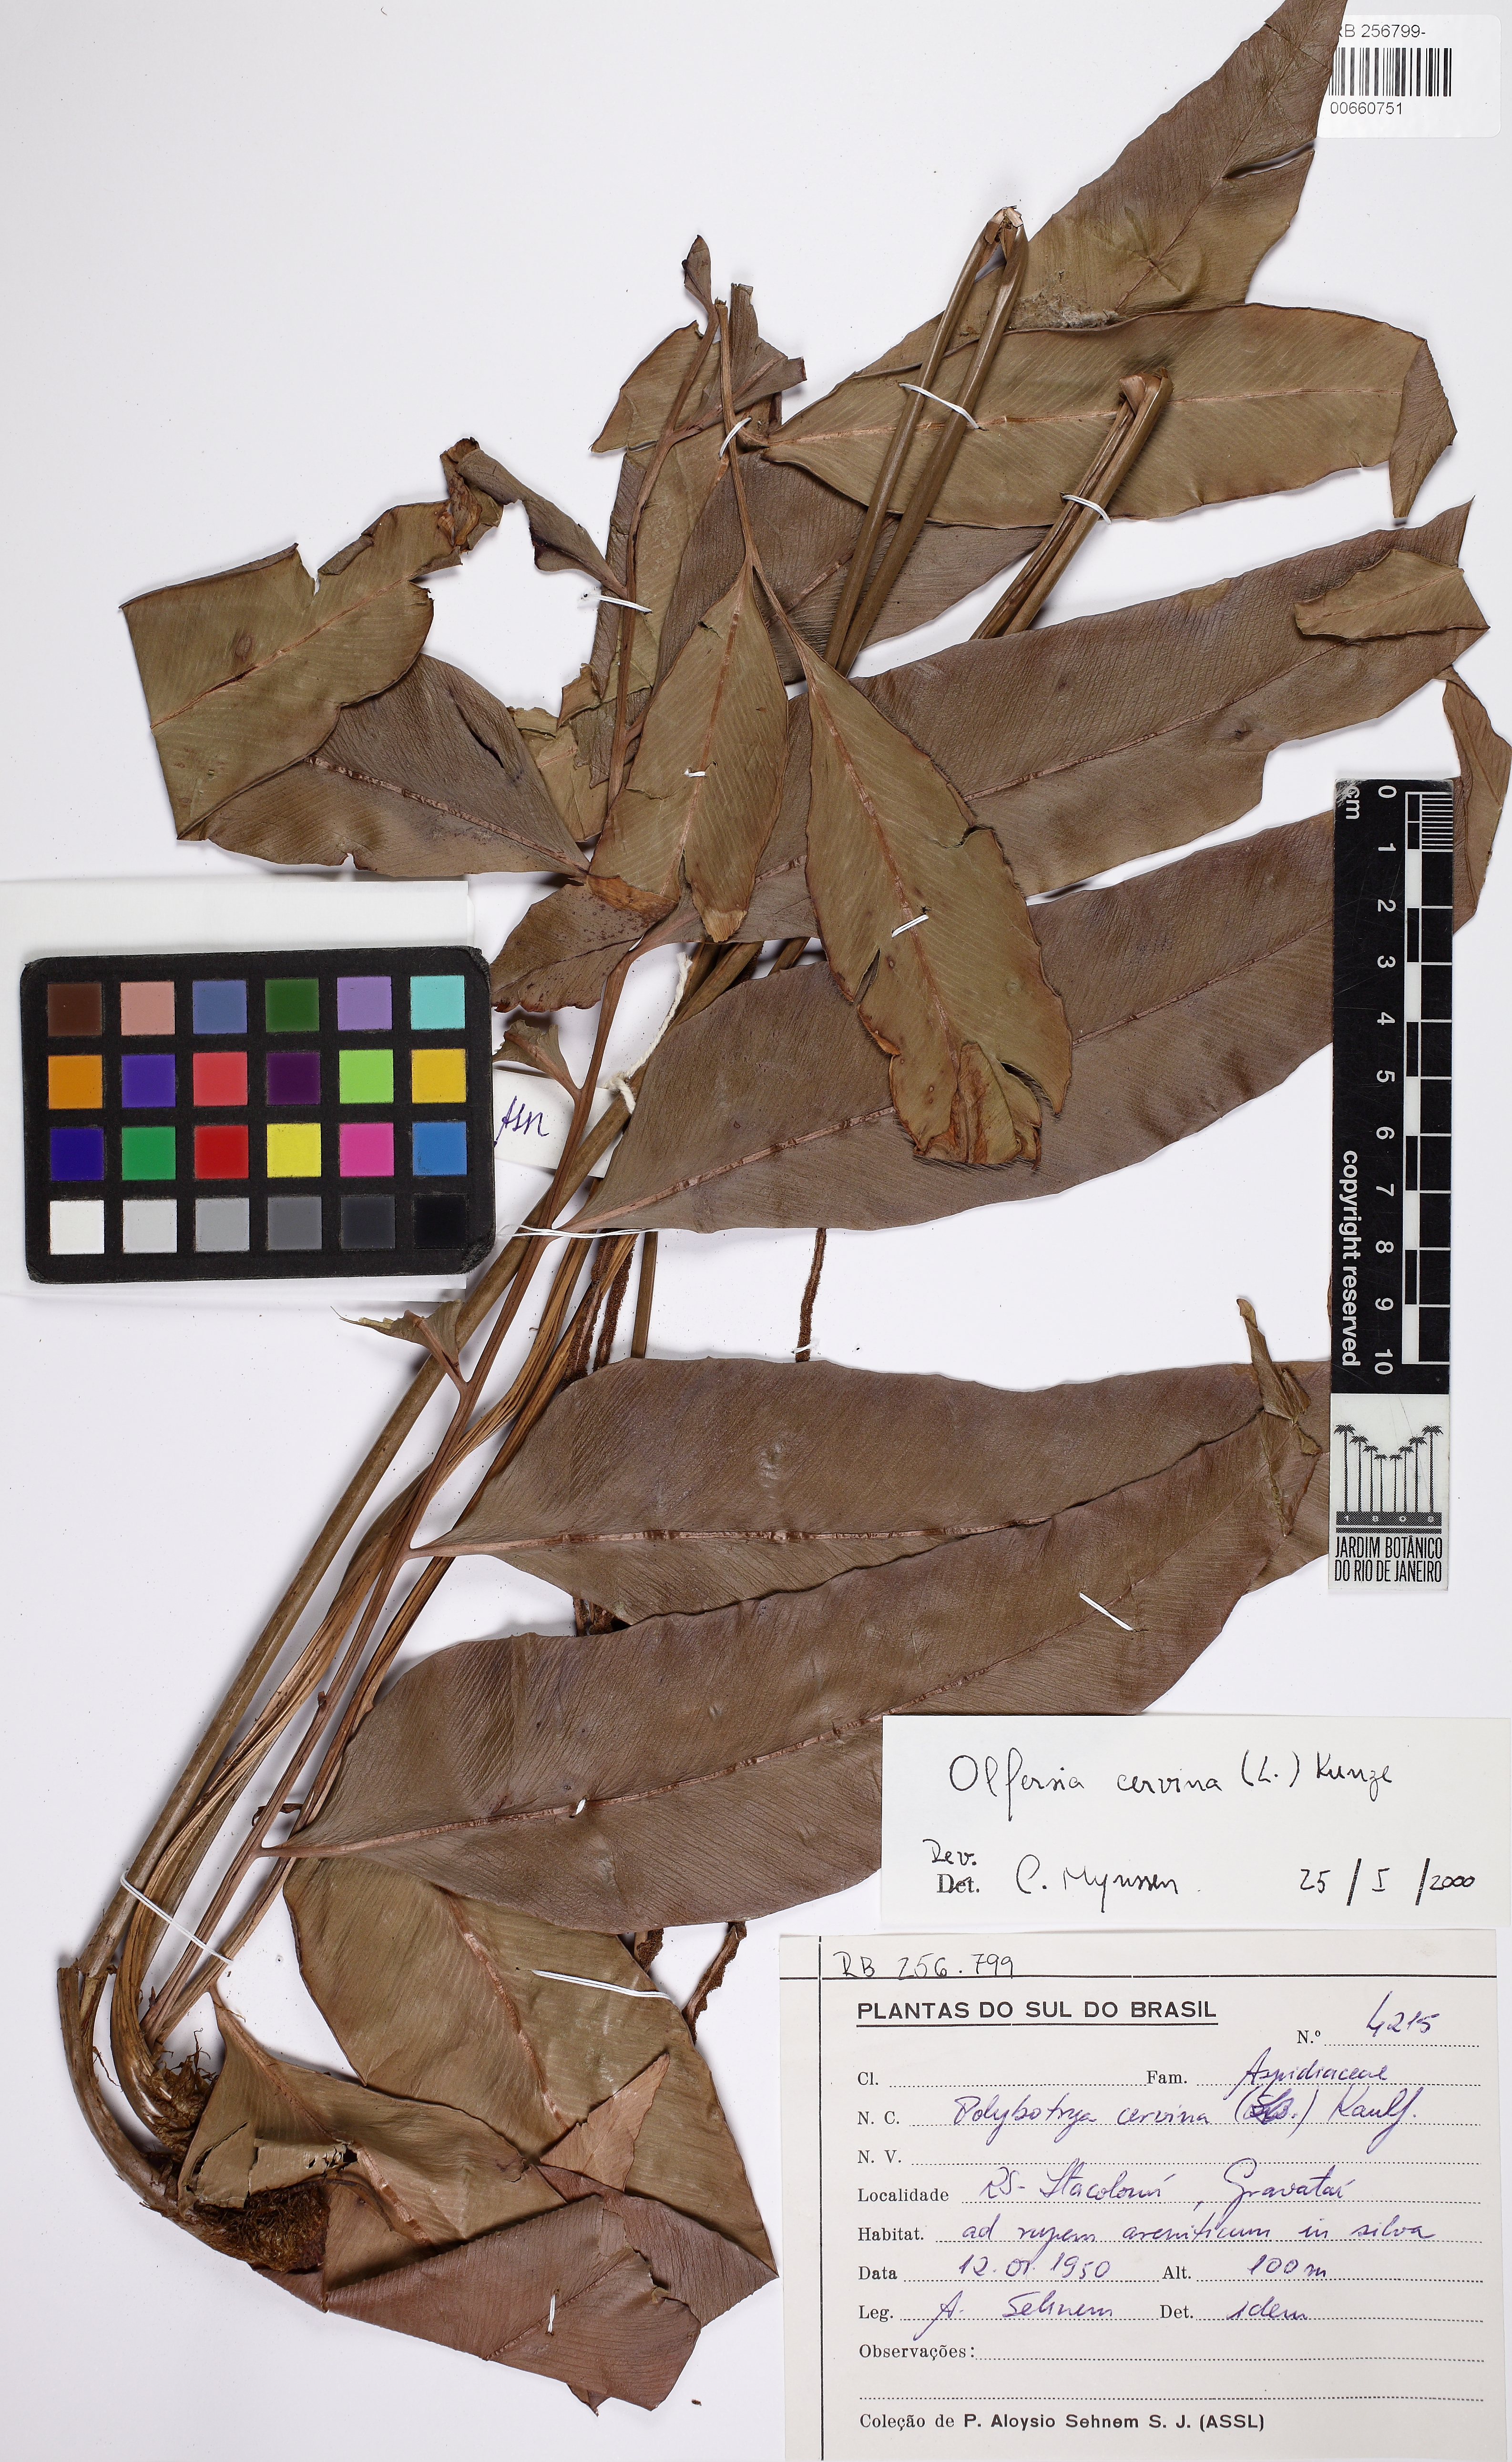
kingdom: Plantae
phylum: Tracheophyta
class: Polypodiopsida
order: Polypodiales
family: Dryopteridaceae
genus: Olfersia
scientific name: Olfersia cervina
